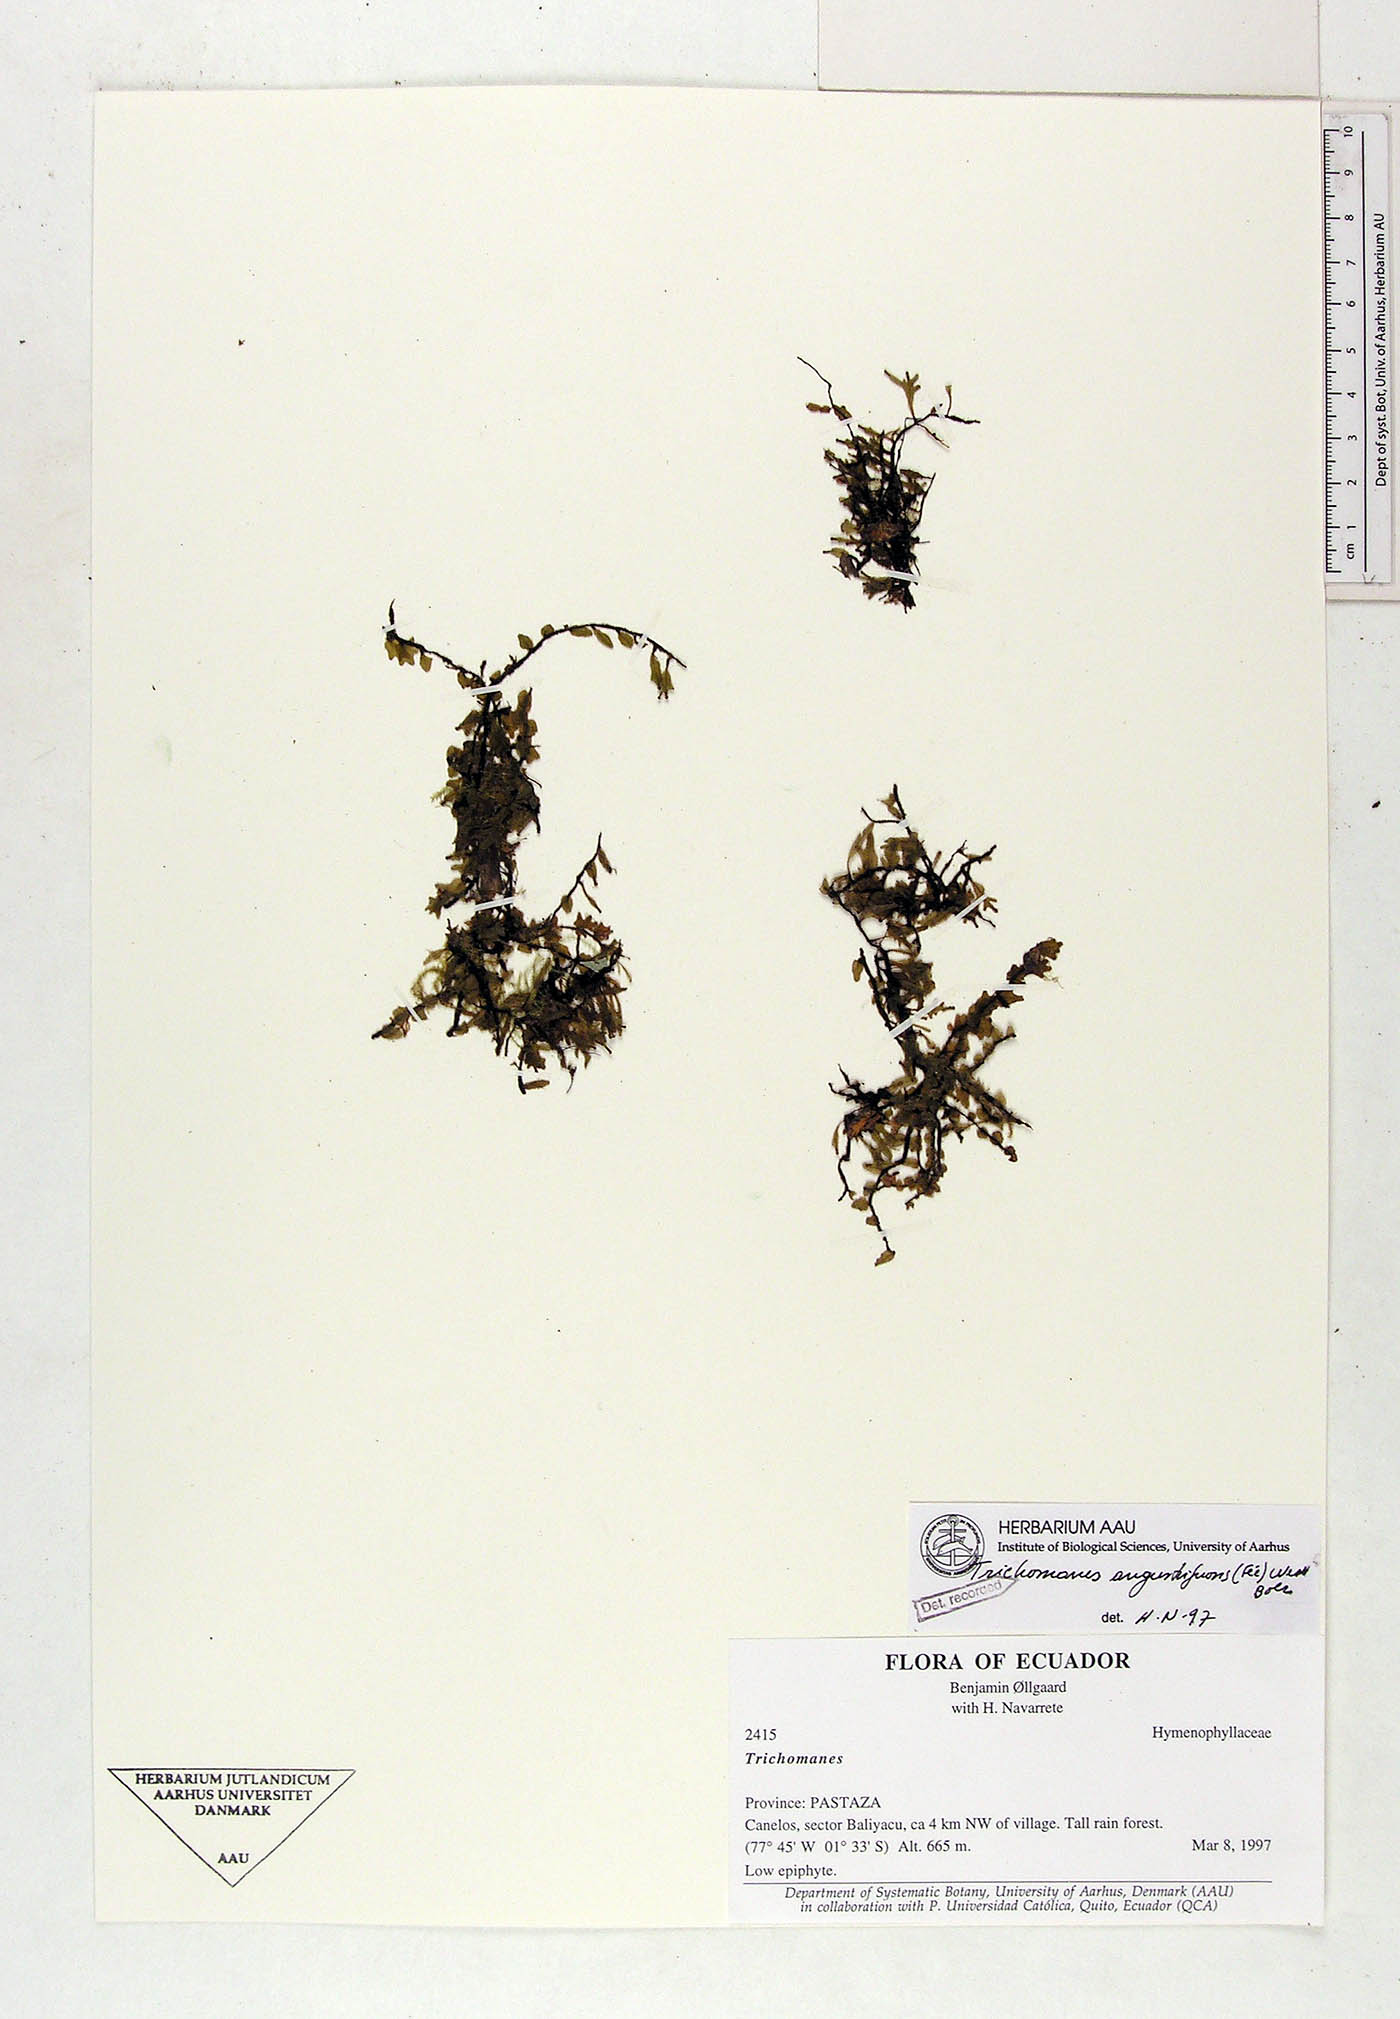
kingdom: Plantae
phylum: Tracheophyta
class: Polypodiopsida
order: Hymenophyllales
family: Hymenophyllaceae
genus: Didymoglossum
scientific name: Didymoglossum angustifrons
